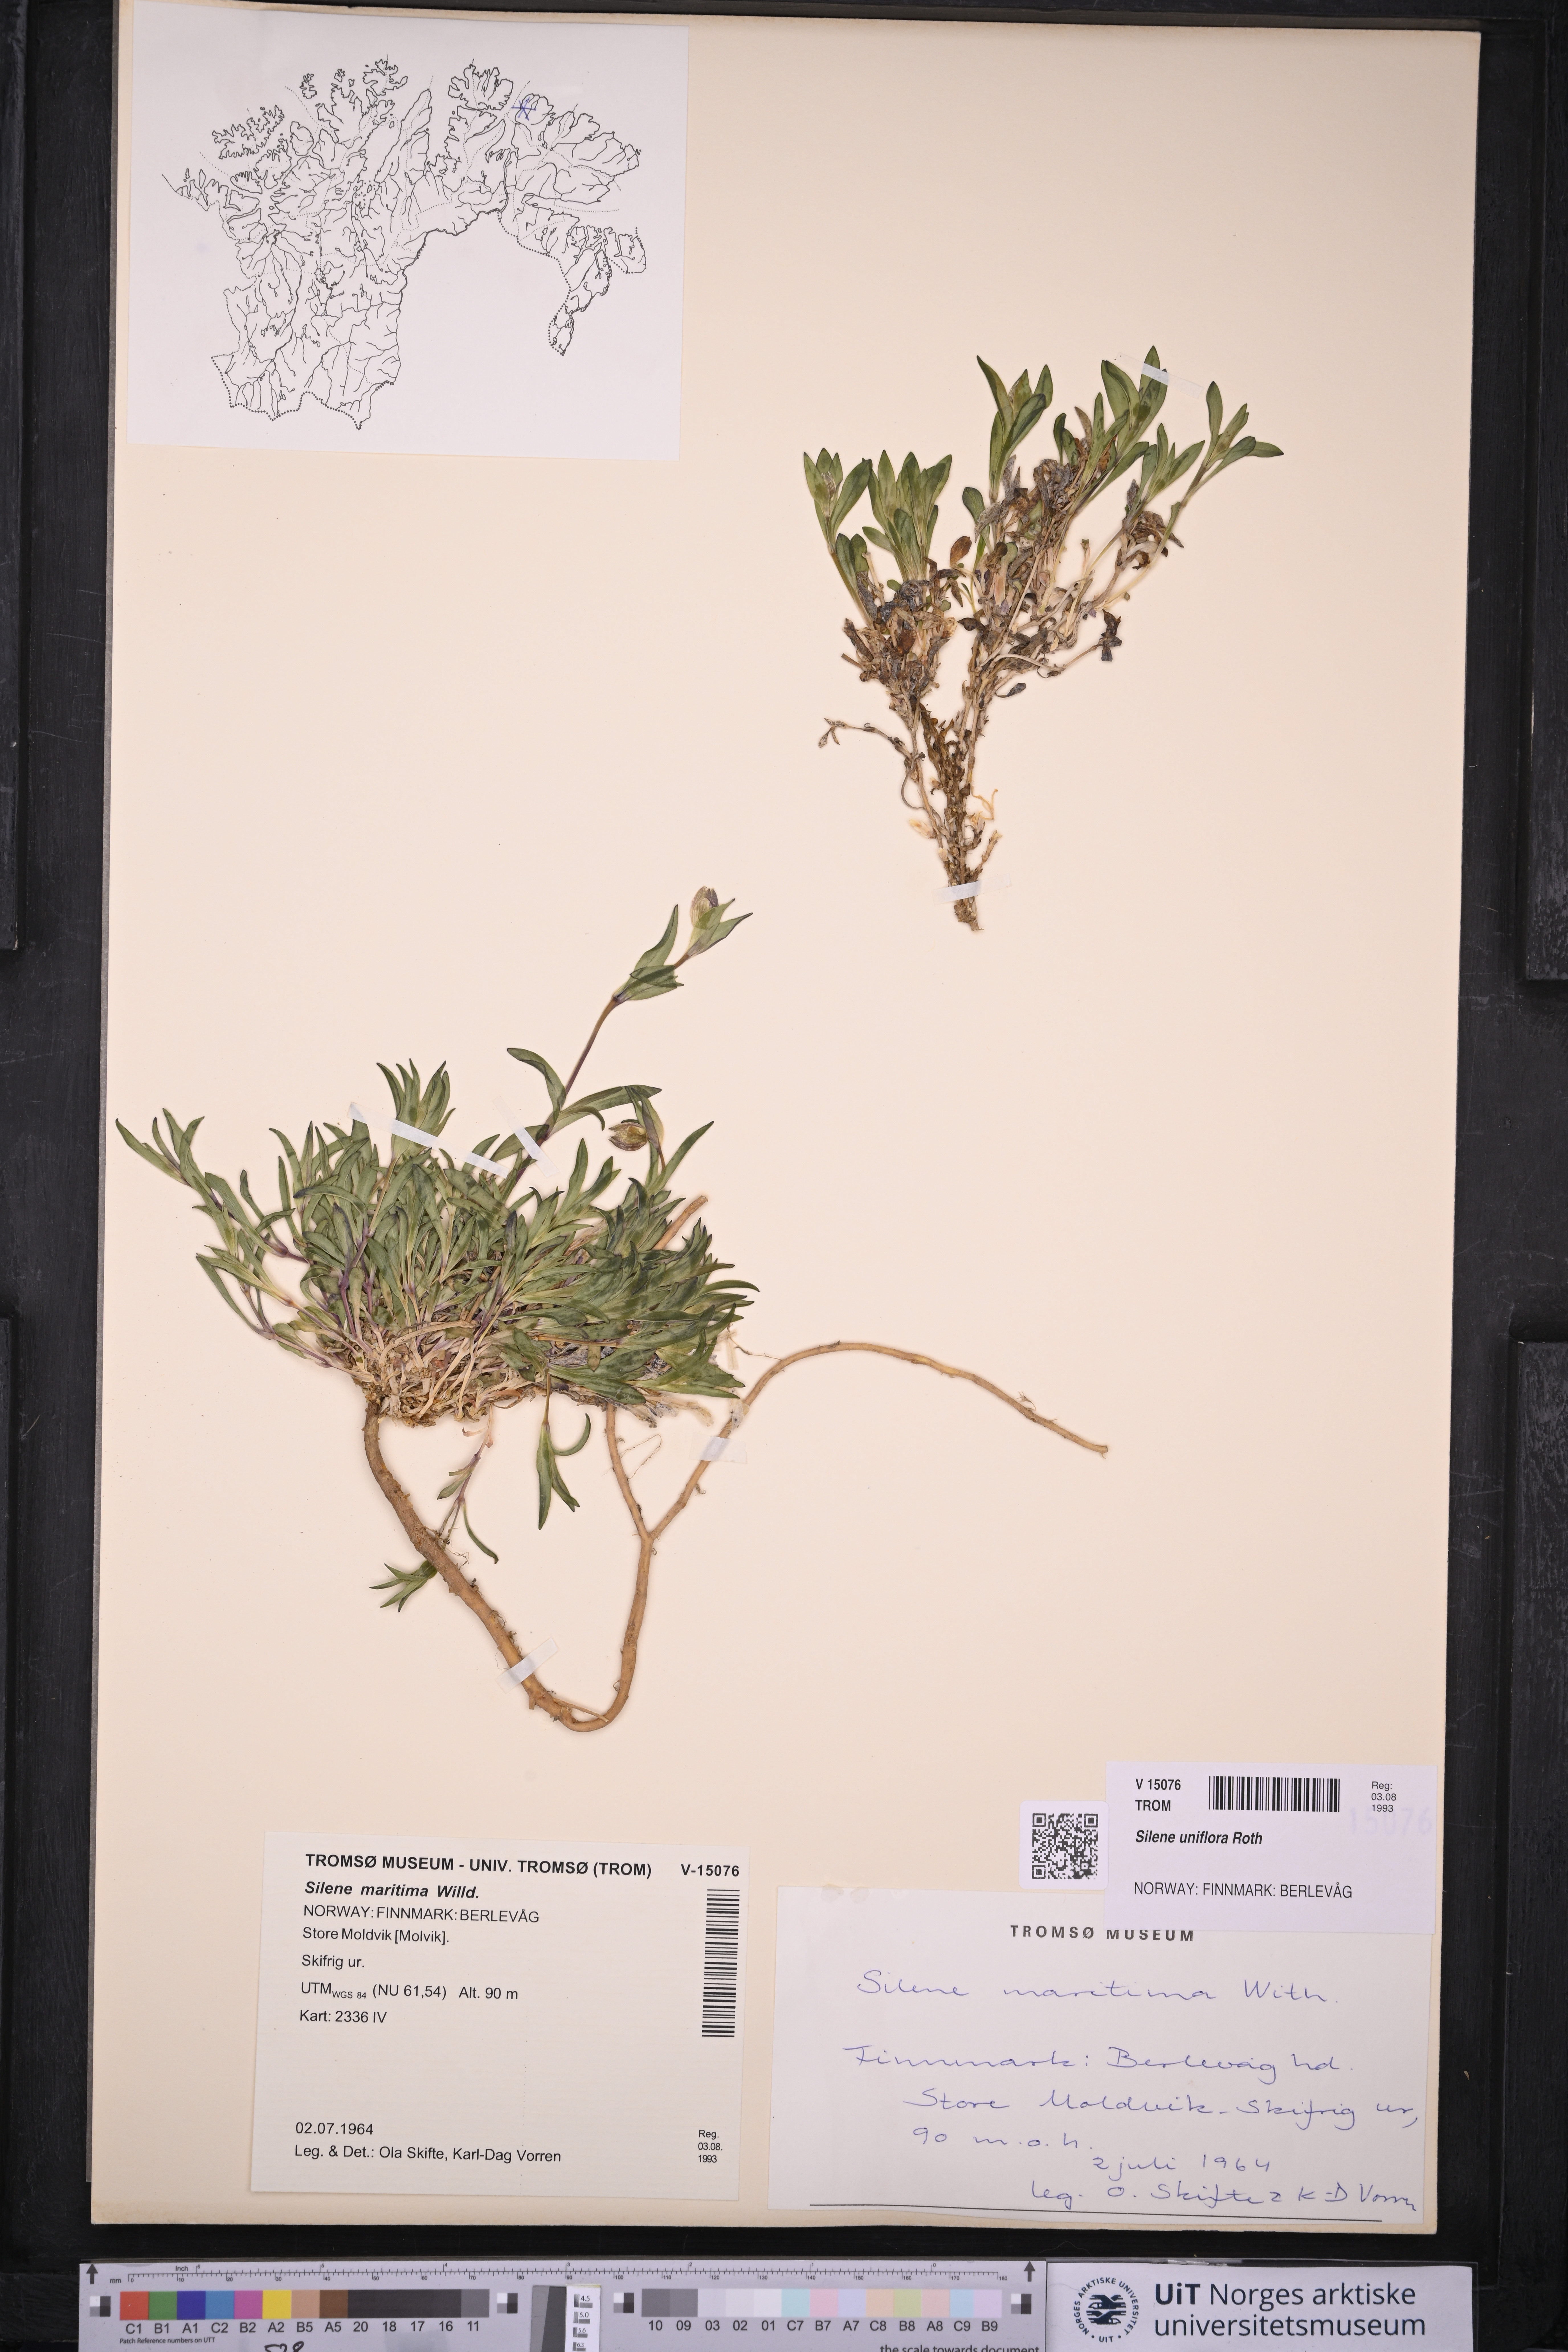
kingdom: Plantae
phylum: Tracheophyta
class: Magnoliopsida
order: Caryophyllales
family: Caryophyllaceae
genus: Silene
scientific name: Silene uniflora
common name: Sea campion
